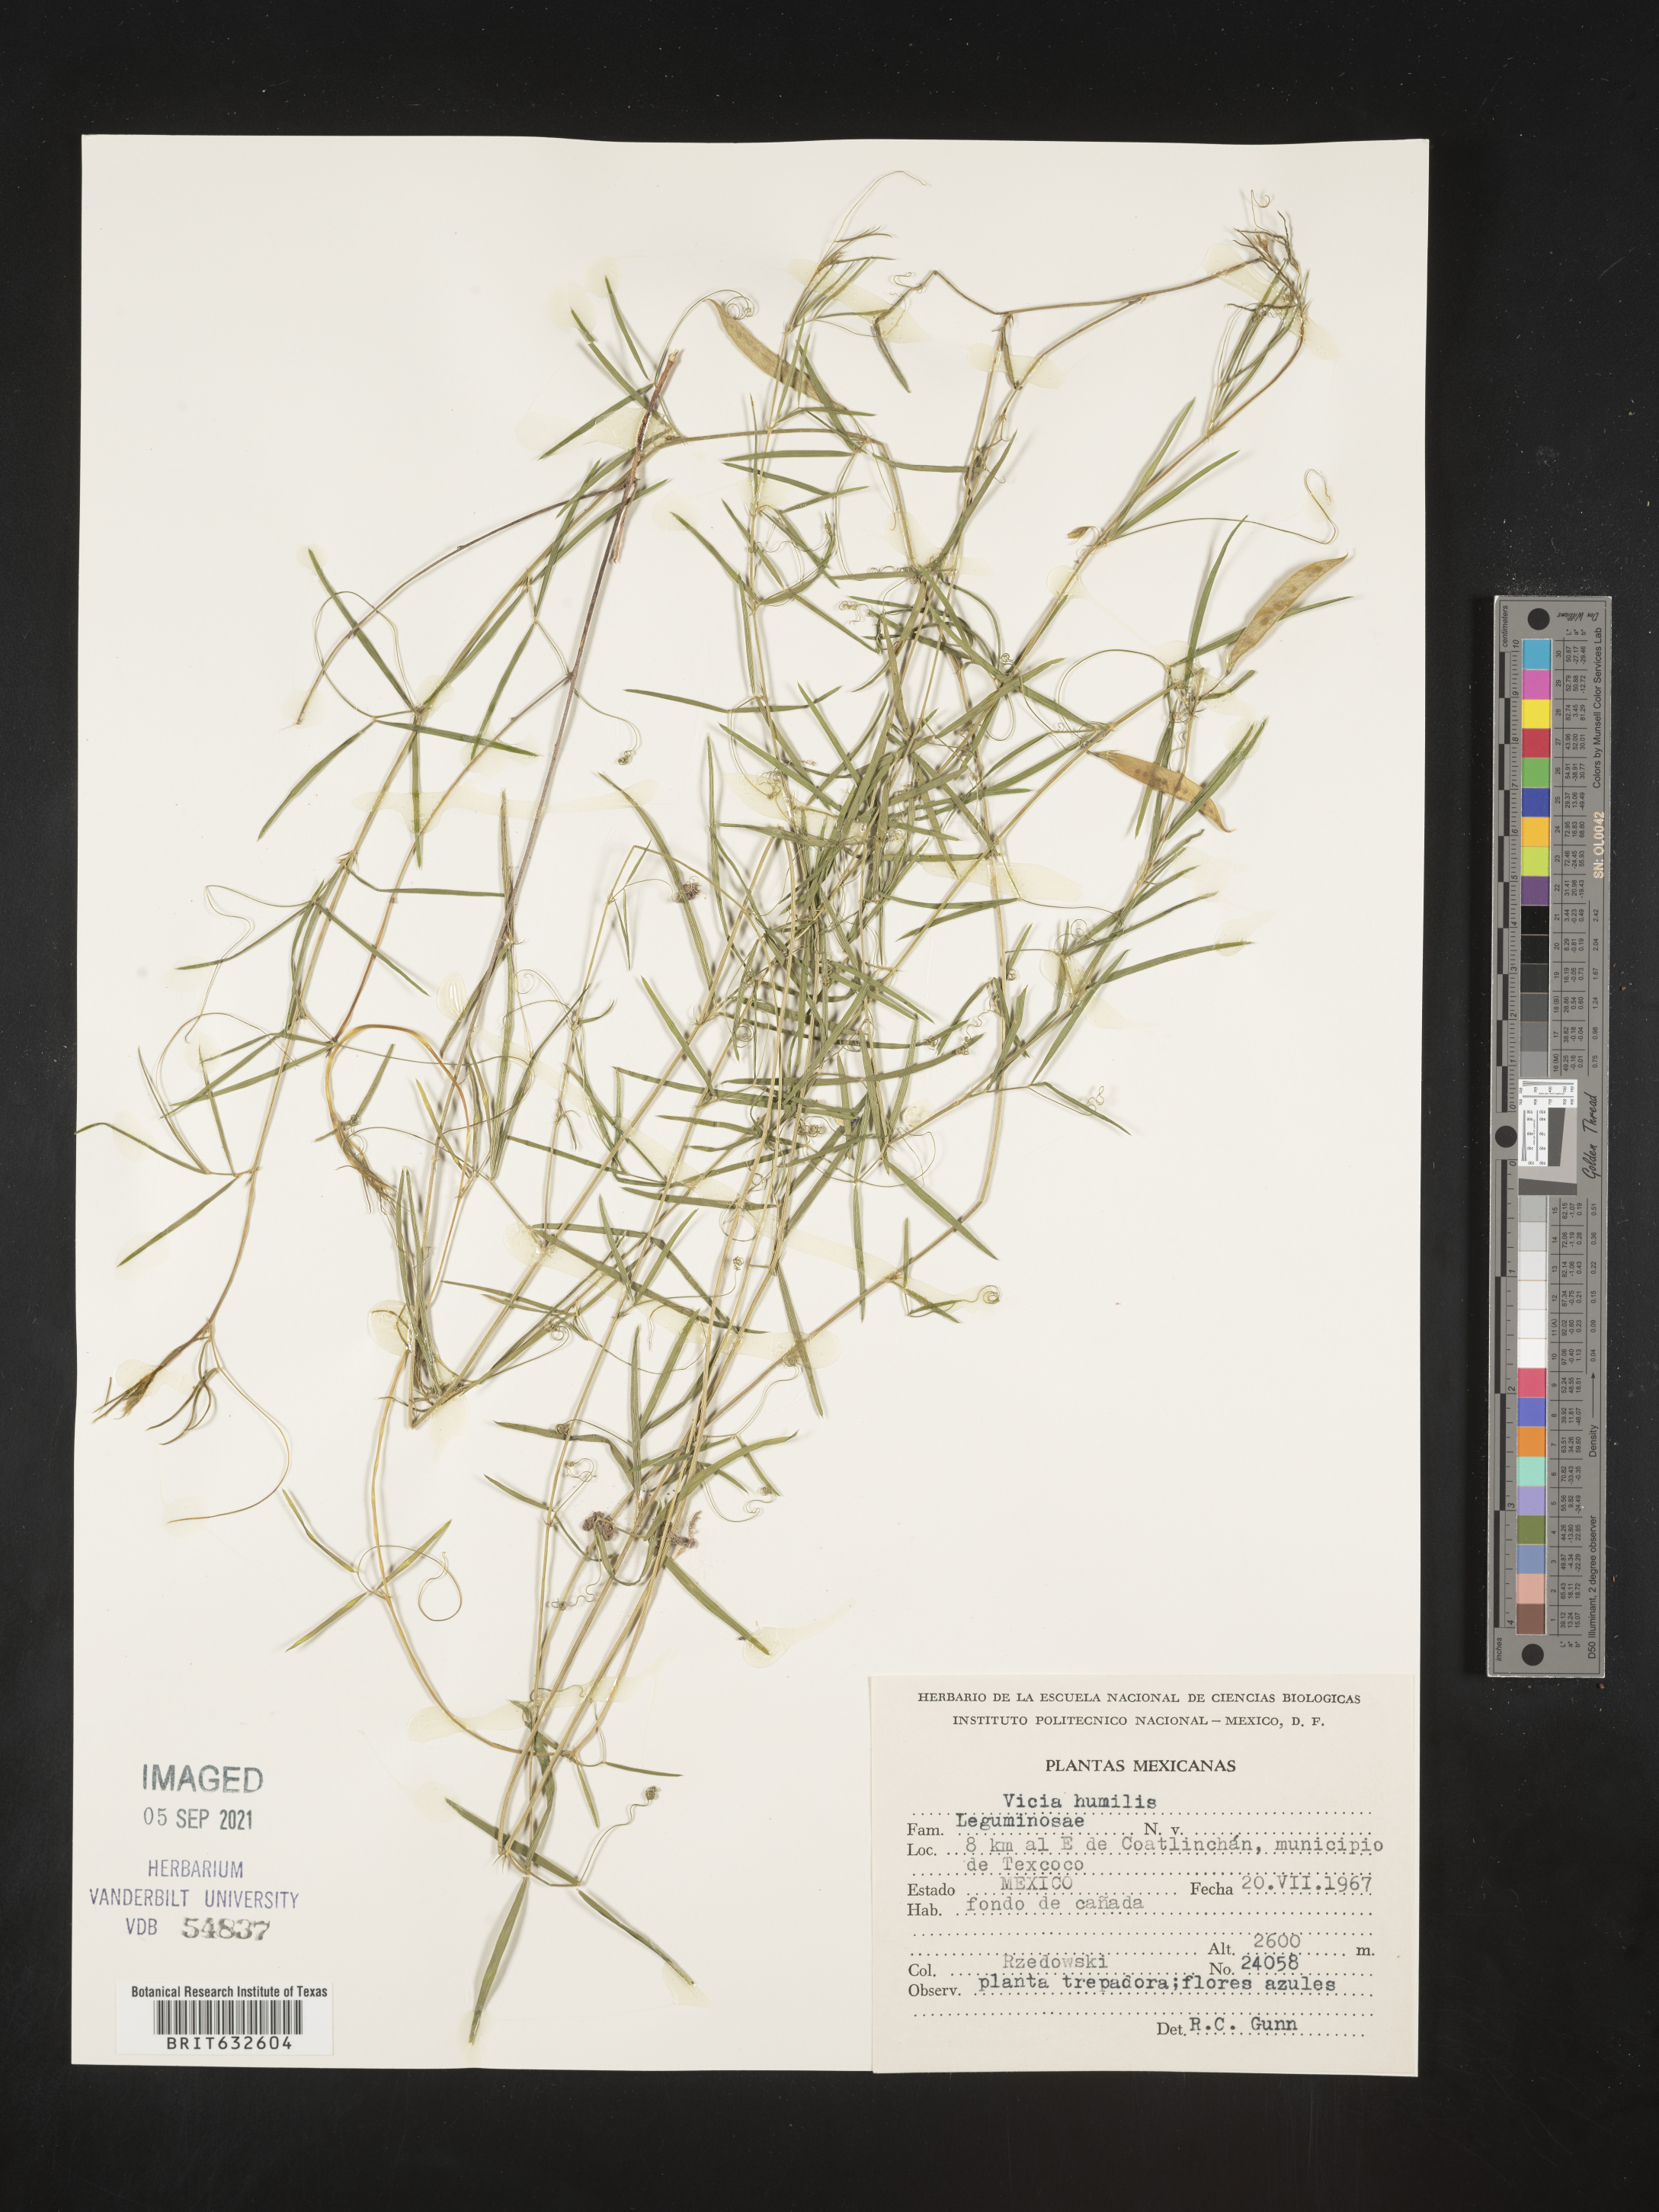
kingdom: Plantae
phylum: Tracheophyta
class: Magnoliopsida
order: Fabales
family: Fabaceae
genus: Vicia
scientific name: Vicia
